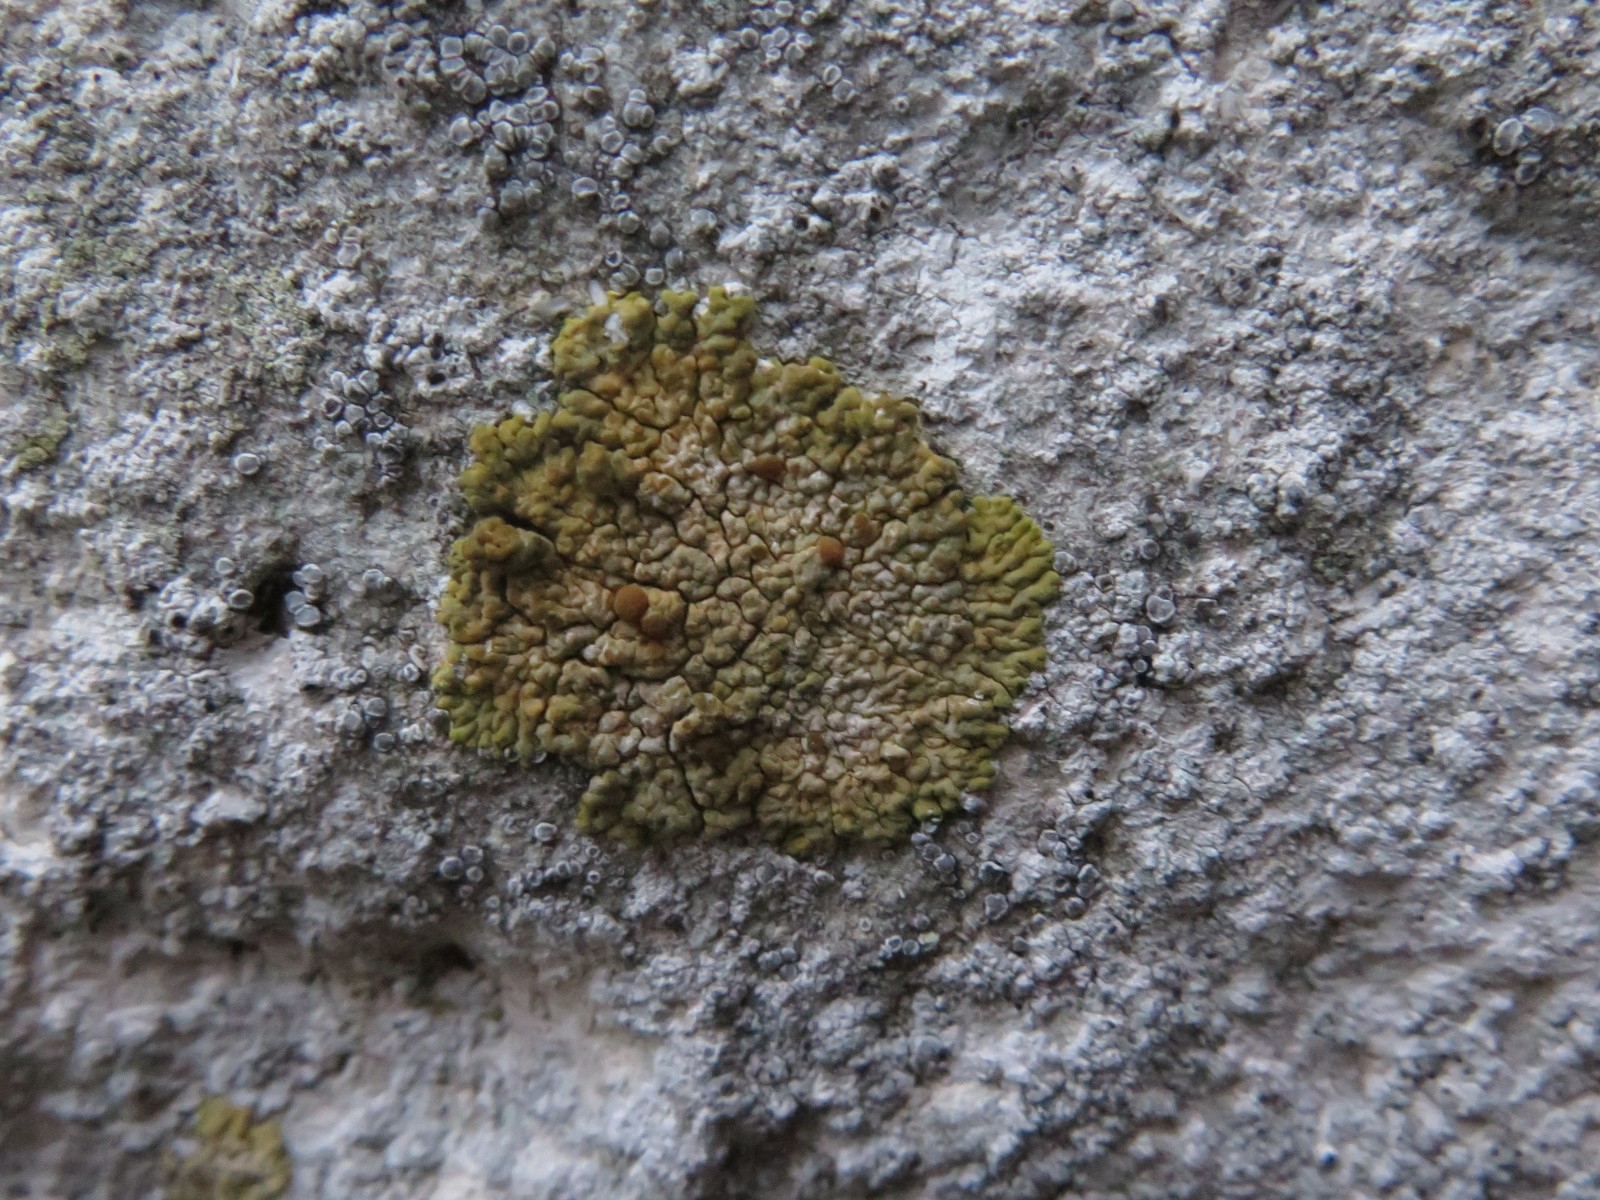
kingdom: Fungi
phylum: Ascomycota
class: Lecanoromycetes
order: Teloschistales
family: Teloschistaceae
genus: Variospora
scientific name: Variospora flavescens
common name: kalk-orangelav
